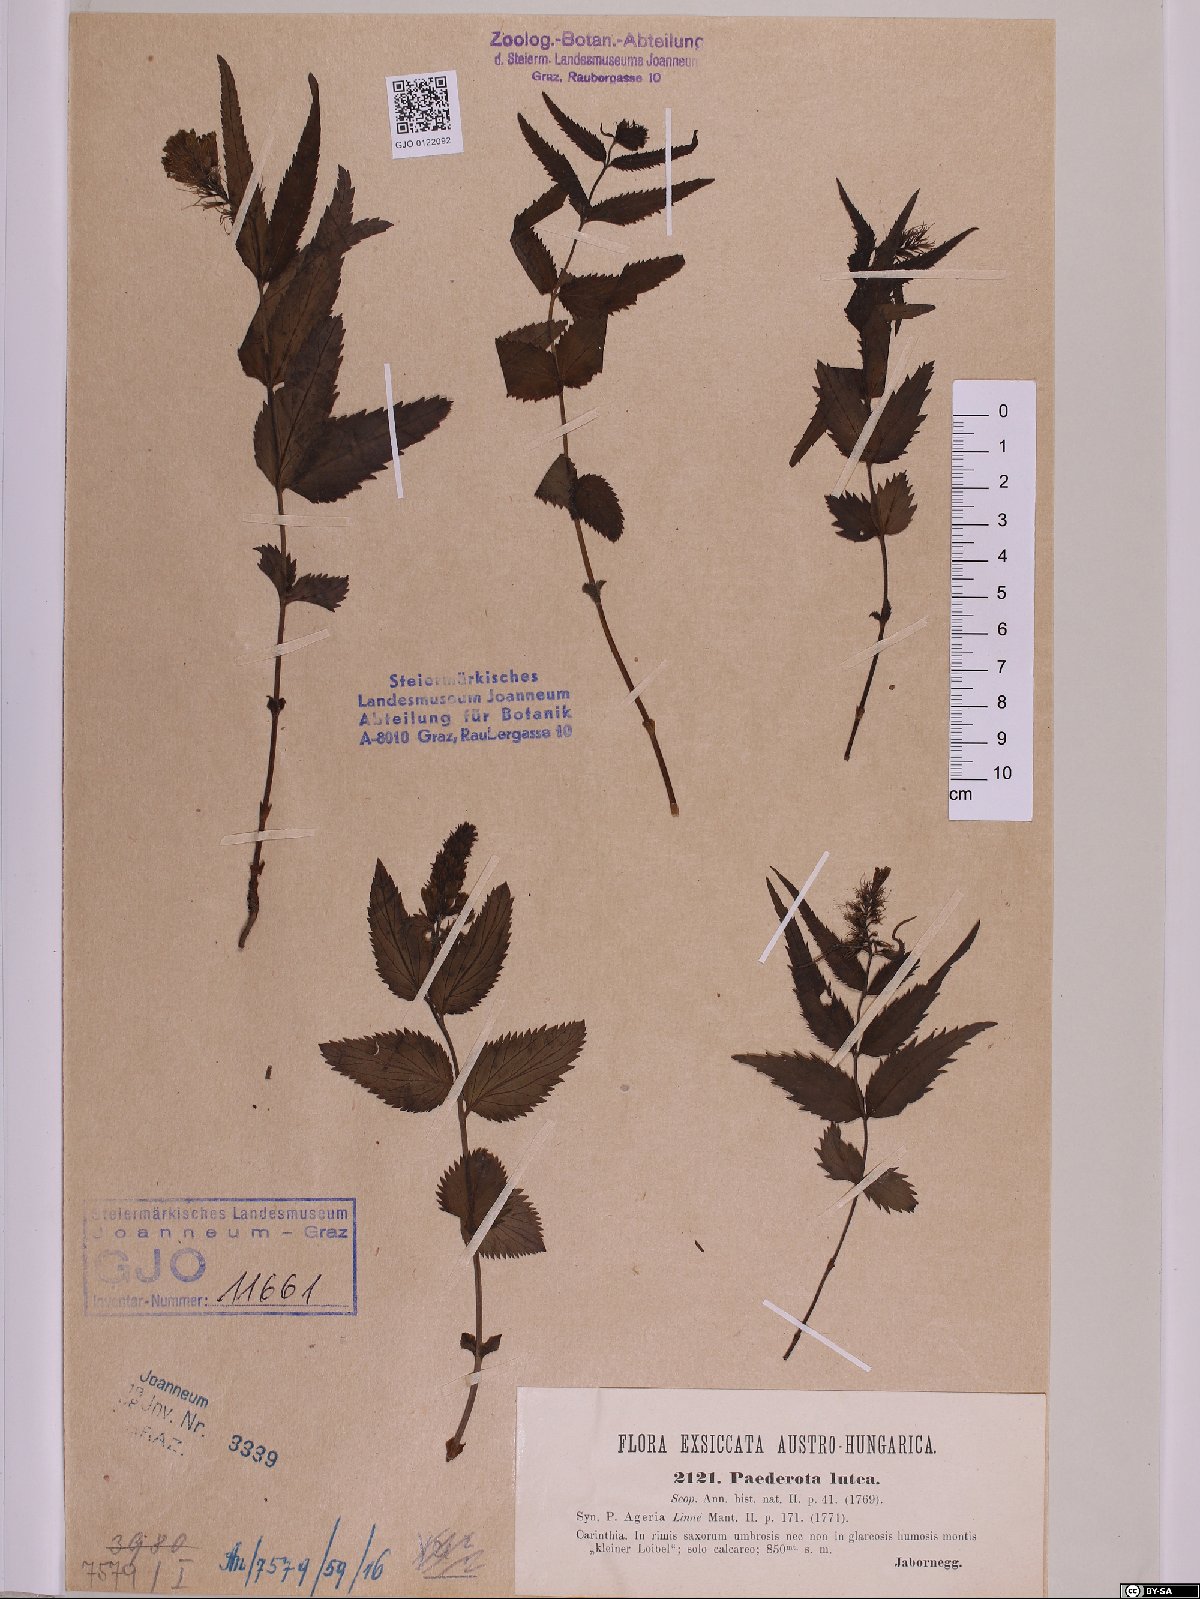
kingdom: Plantae
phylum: Tracheophyta
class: Magnoliopsida
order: Lamiales
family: Plantaginaceae
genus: Paederota
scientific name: Paederota lutea
